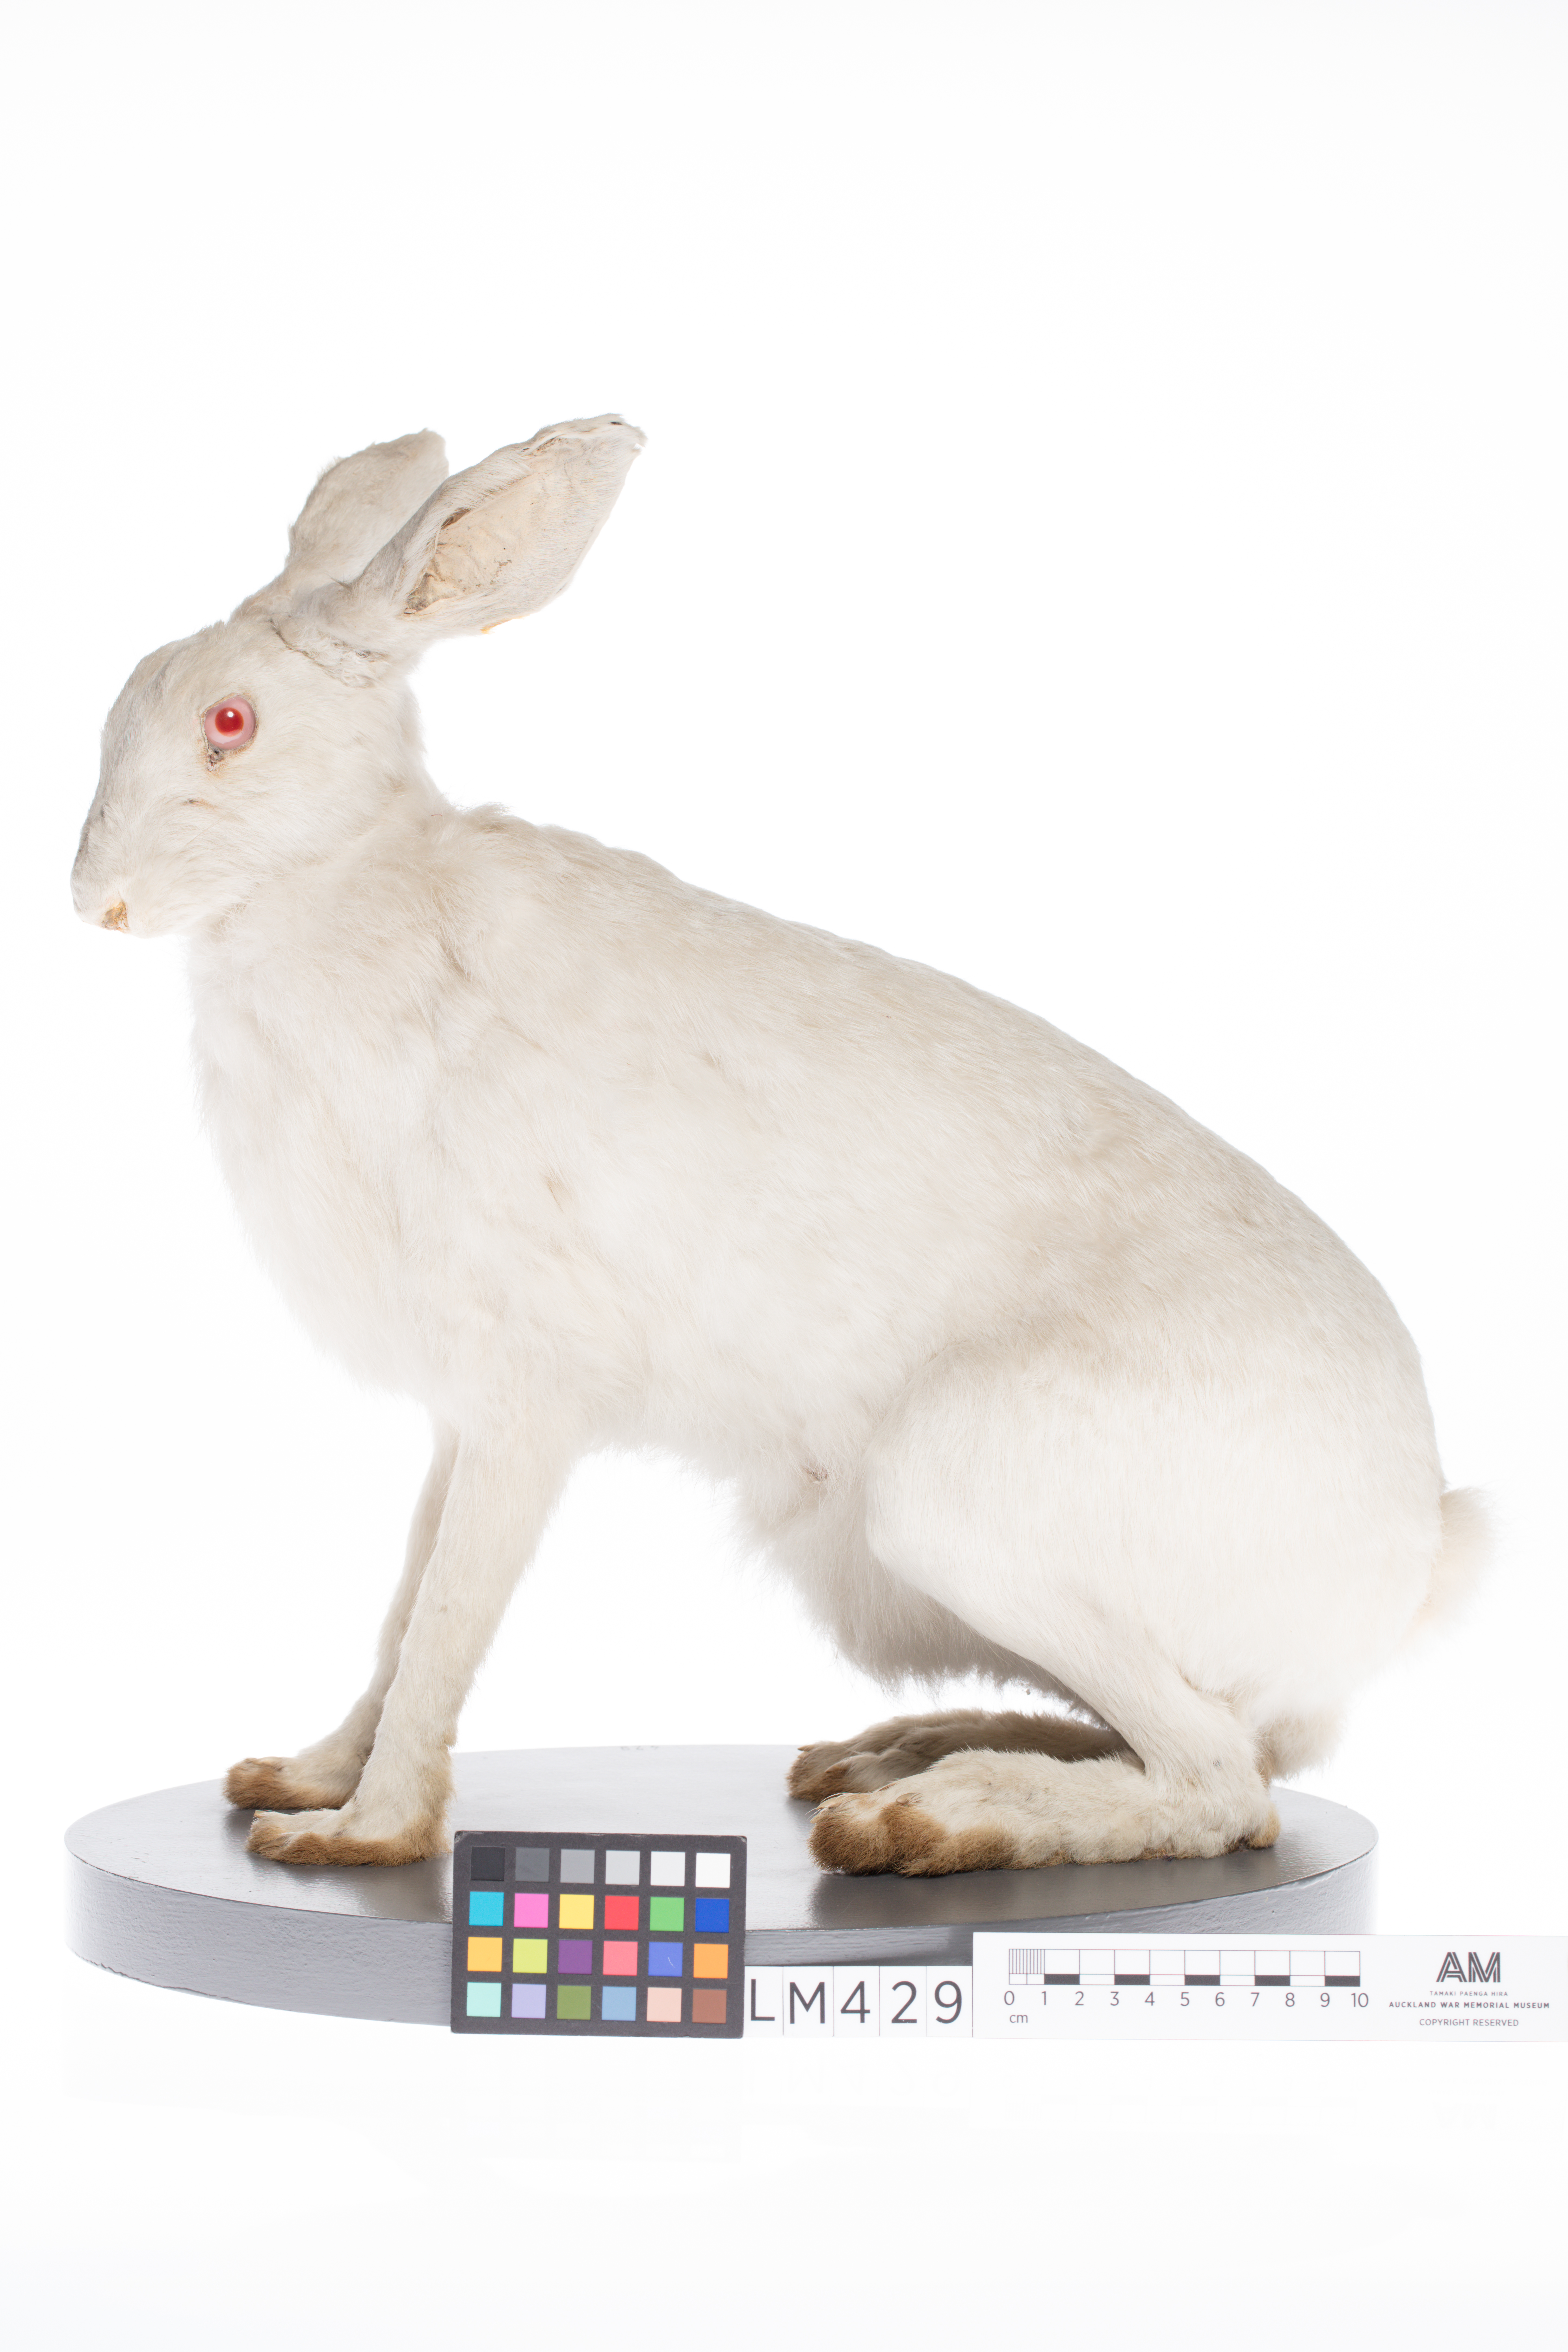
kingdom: Animalia
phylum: Chordata
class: Mammalia
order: Lagomorpha
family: Leporidae
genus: Lepus
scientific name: Lepus europaeus
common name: European hare
